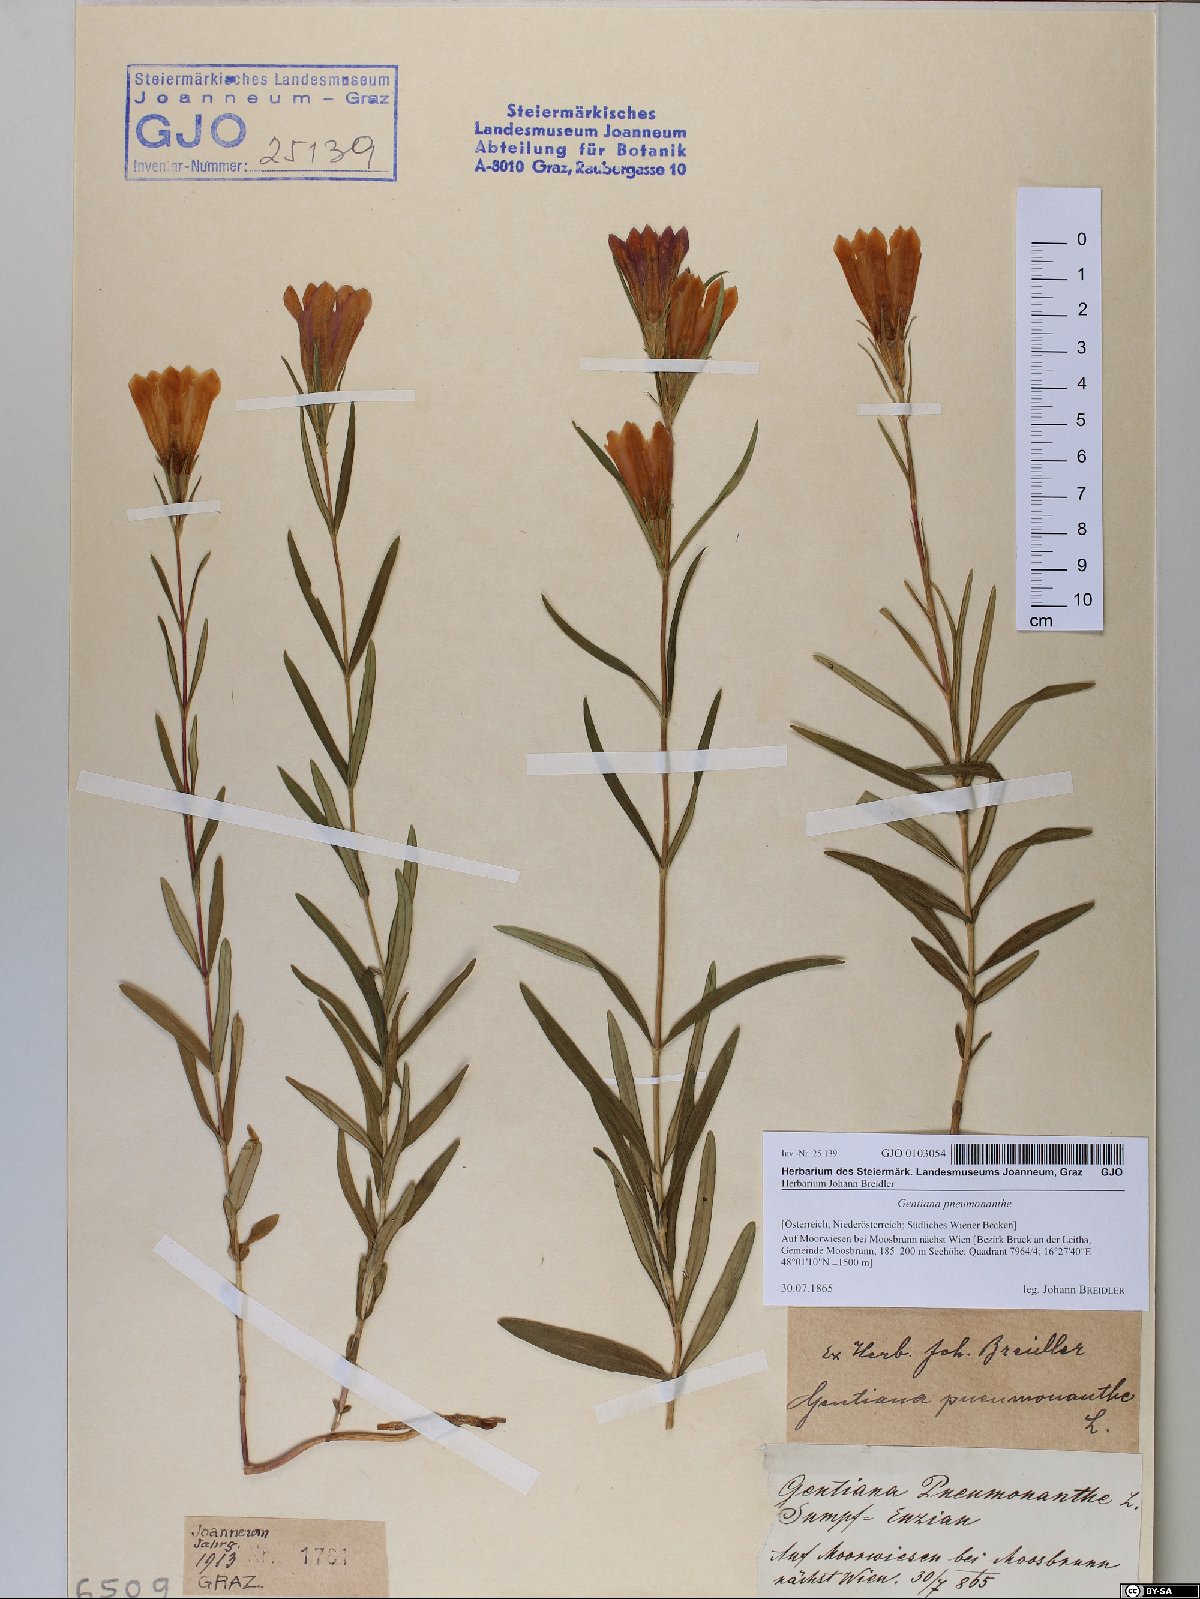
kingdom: Plantae
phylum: Tracheophyta
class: Magnoliopsida
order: Gentianales
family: Gentianaceae
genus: Gentiana
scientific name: Gentiana pneumonanthe
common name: Marsh gentian
